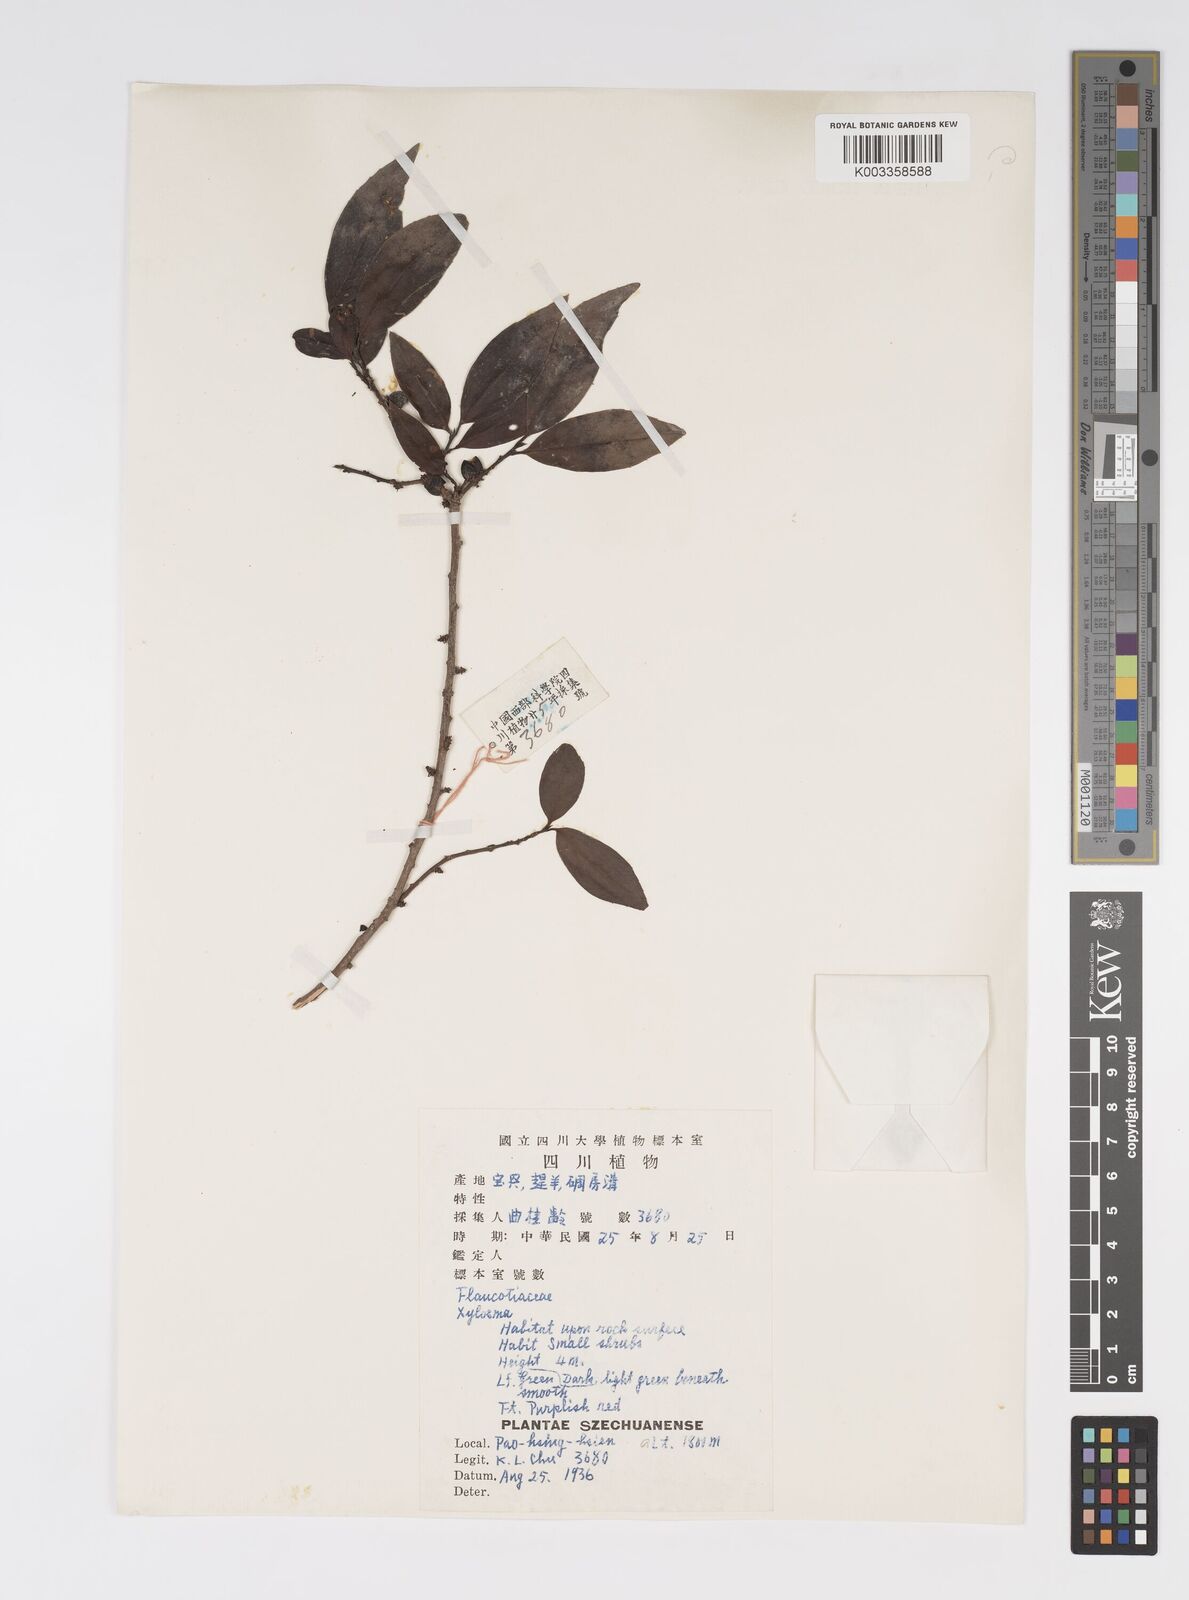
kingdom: Plantae
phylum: Tracheophyta
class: Magnoliopsida
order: Malpighiales
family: Salicaceae
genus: Xylosma
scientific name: Xylosma
